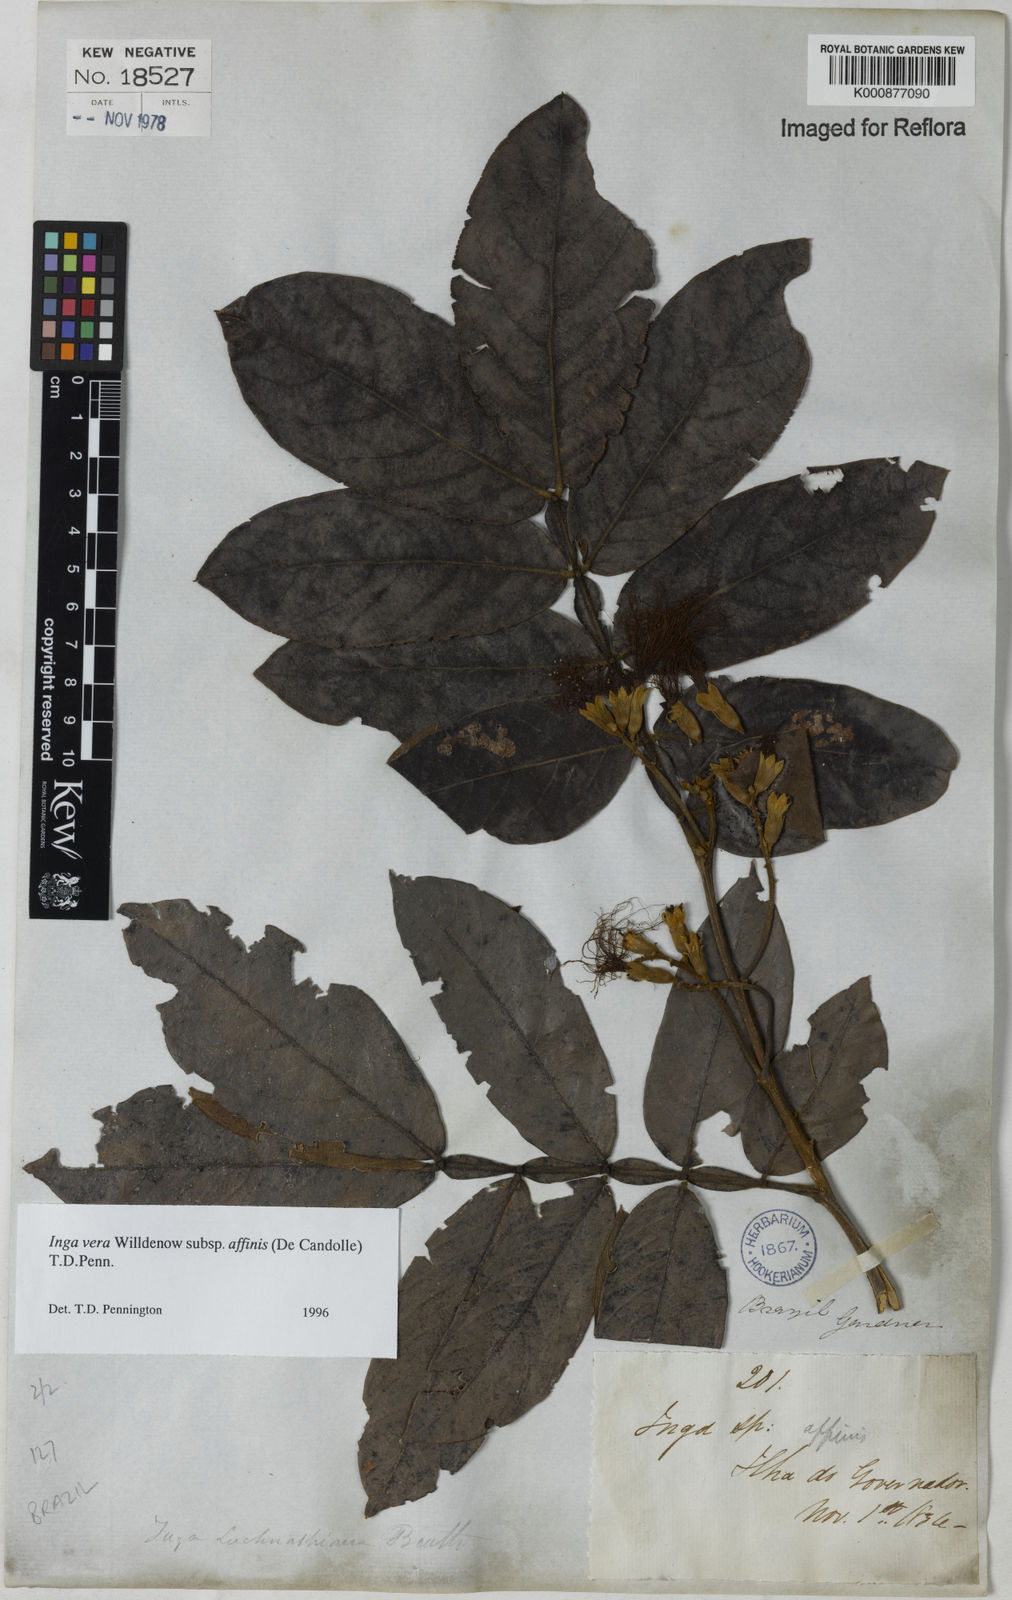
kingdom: Plantae
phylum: Tracheophyta
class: Magnoliopsida
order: Fabales
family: Fabaceae
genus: Inga
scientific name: Inga affinis
